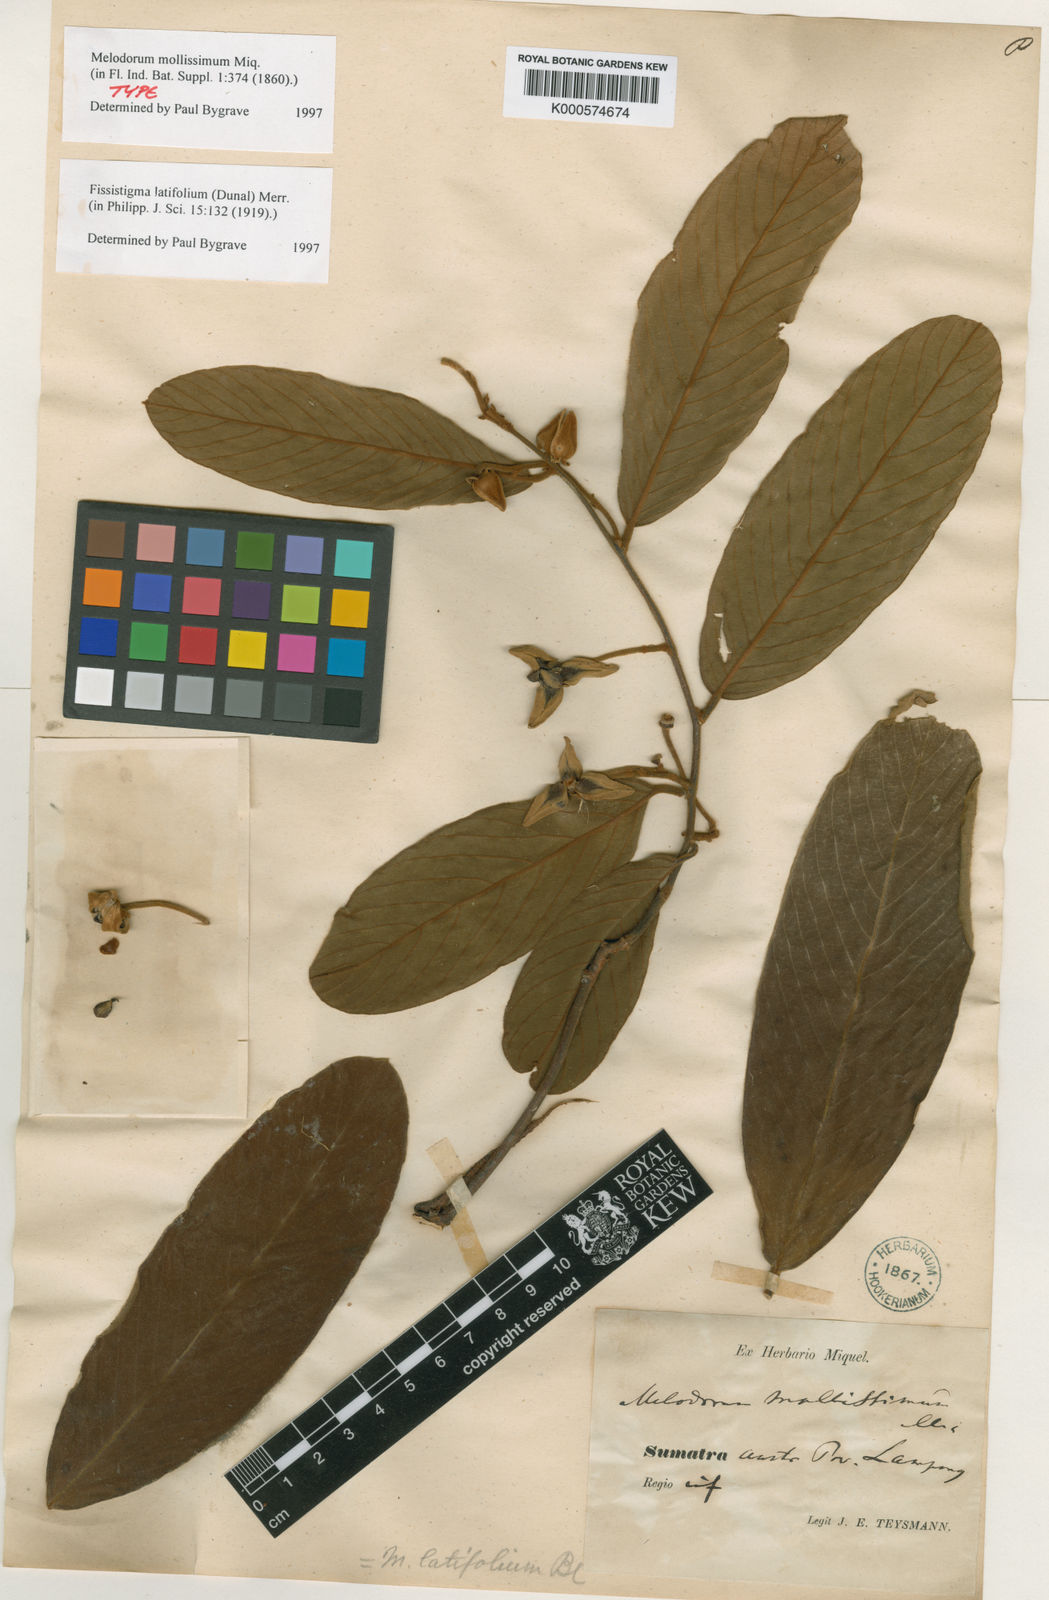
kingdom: Plantae
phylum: Tracheophyta
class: Magnoliopsida
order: Magnoliales
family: Annonaceae
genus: Fissistigma
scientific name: Fissistigma latifolium
